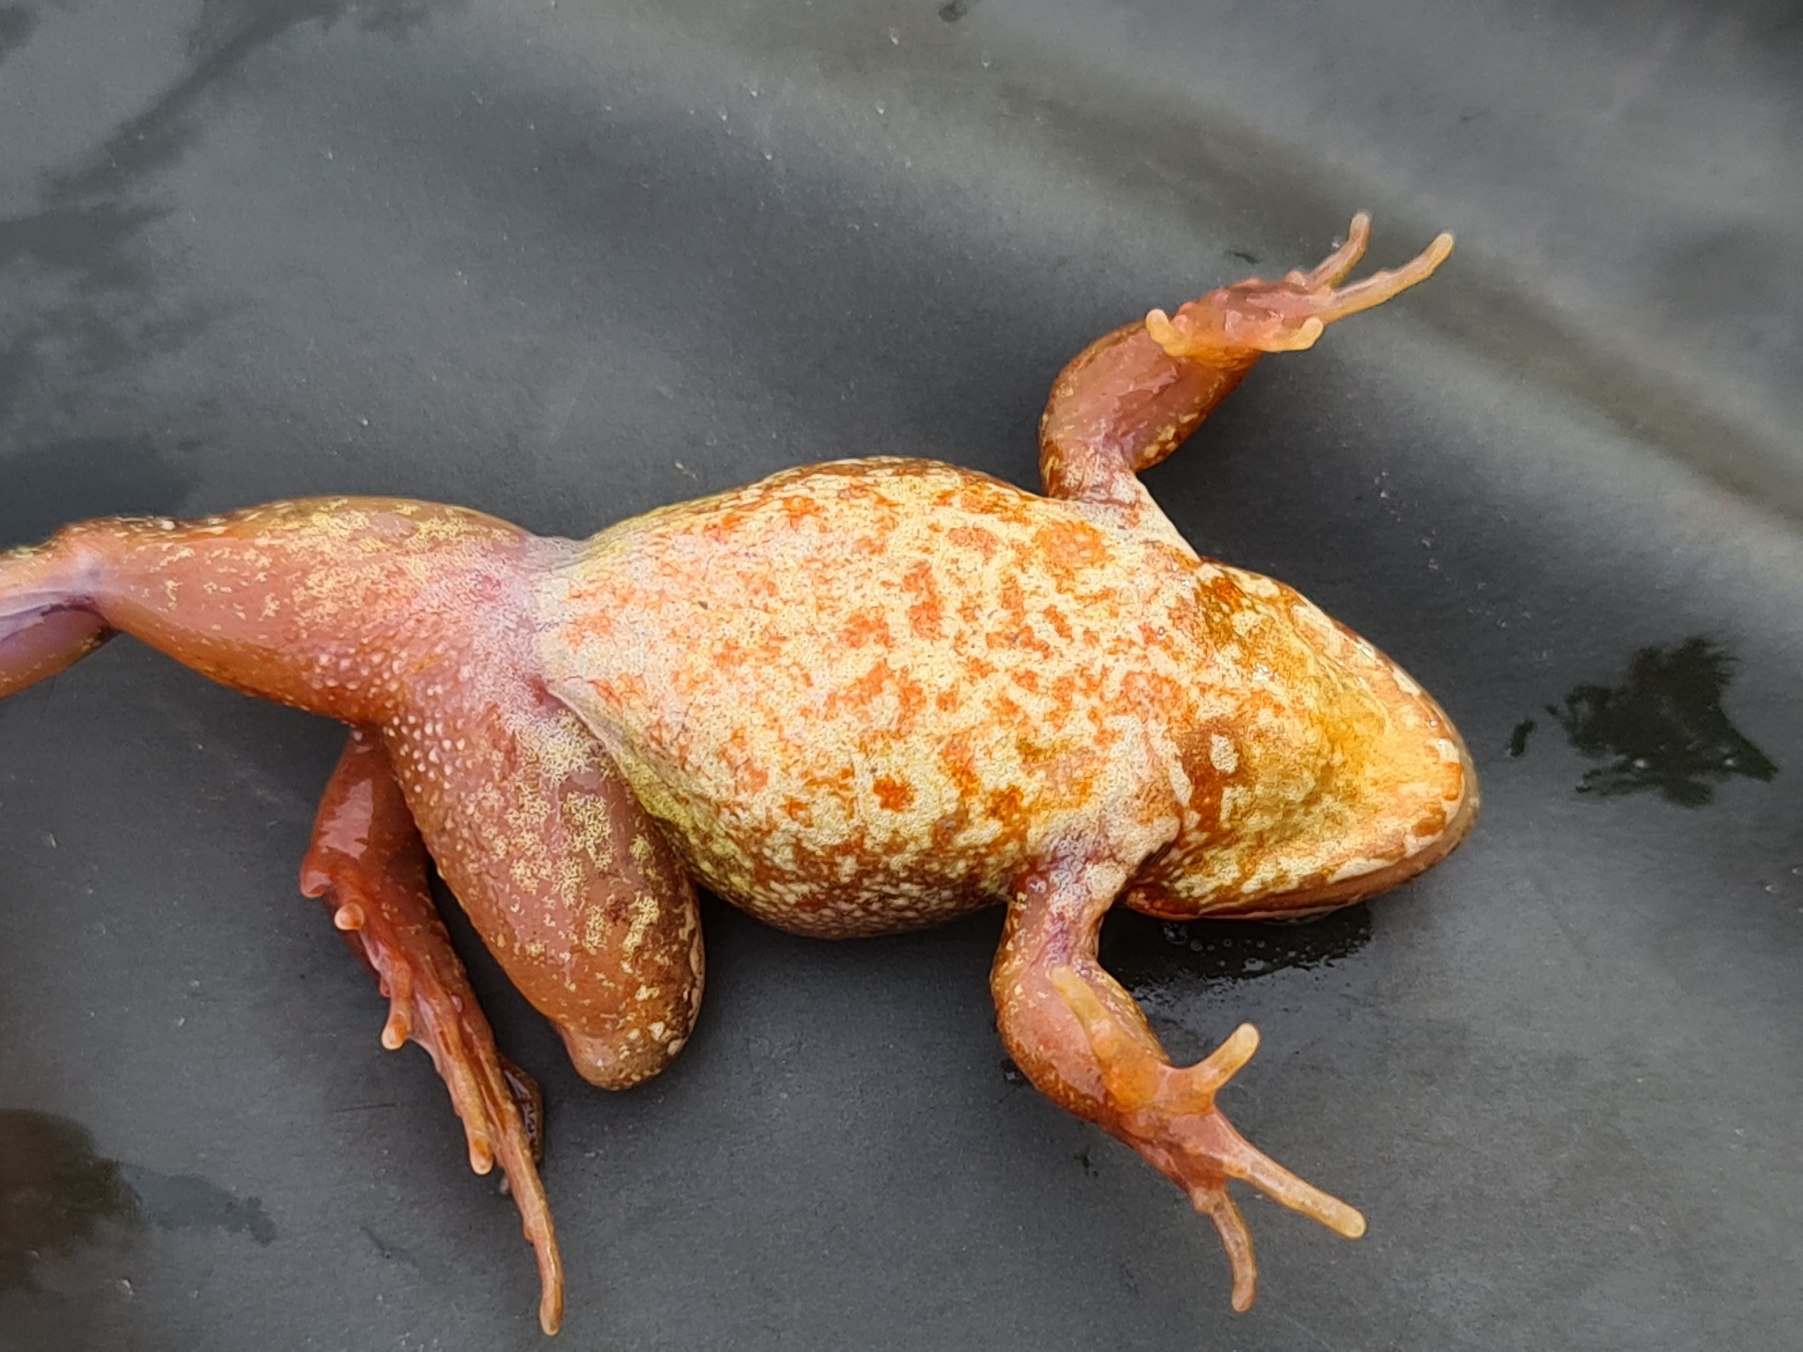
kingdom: Animalia
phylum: Chordata
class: Amphibia
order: Anura
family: Ranidae
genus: Rana
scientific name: Rana temporaria
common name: Butsnudet frø
